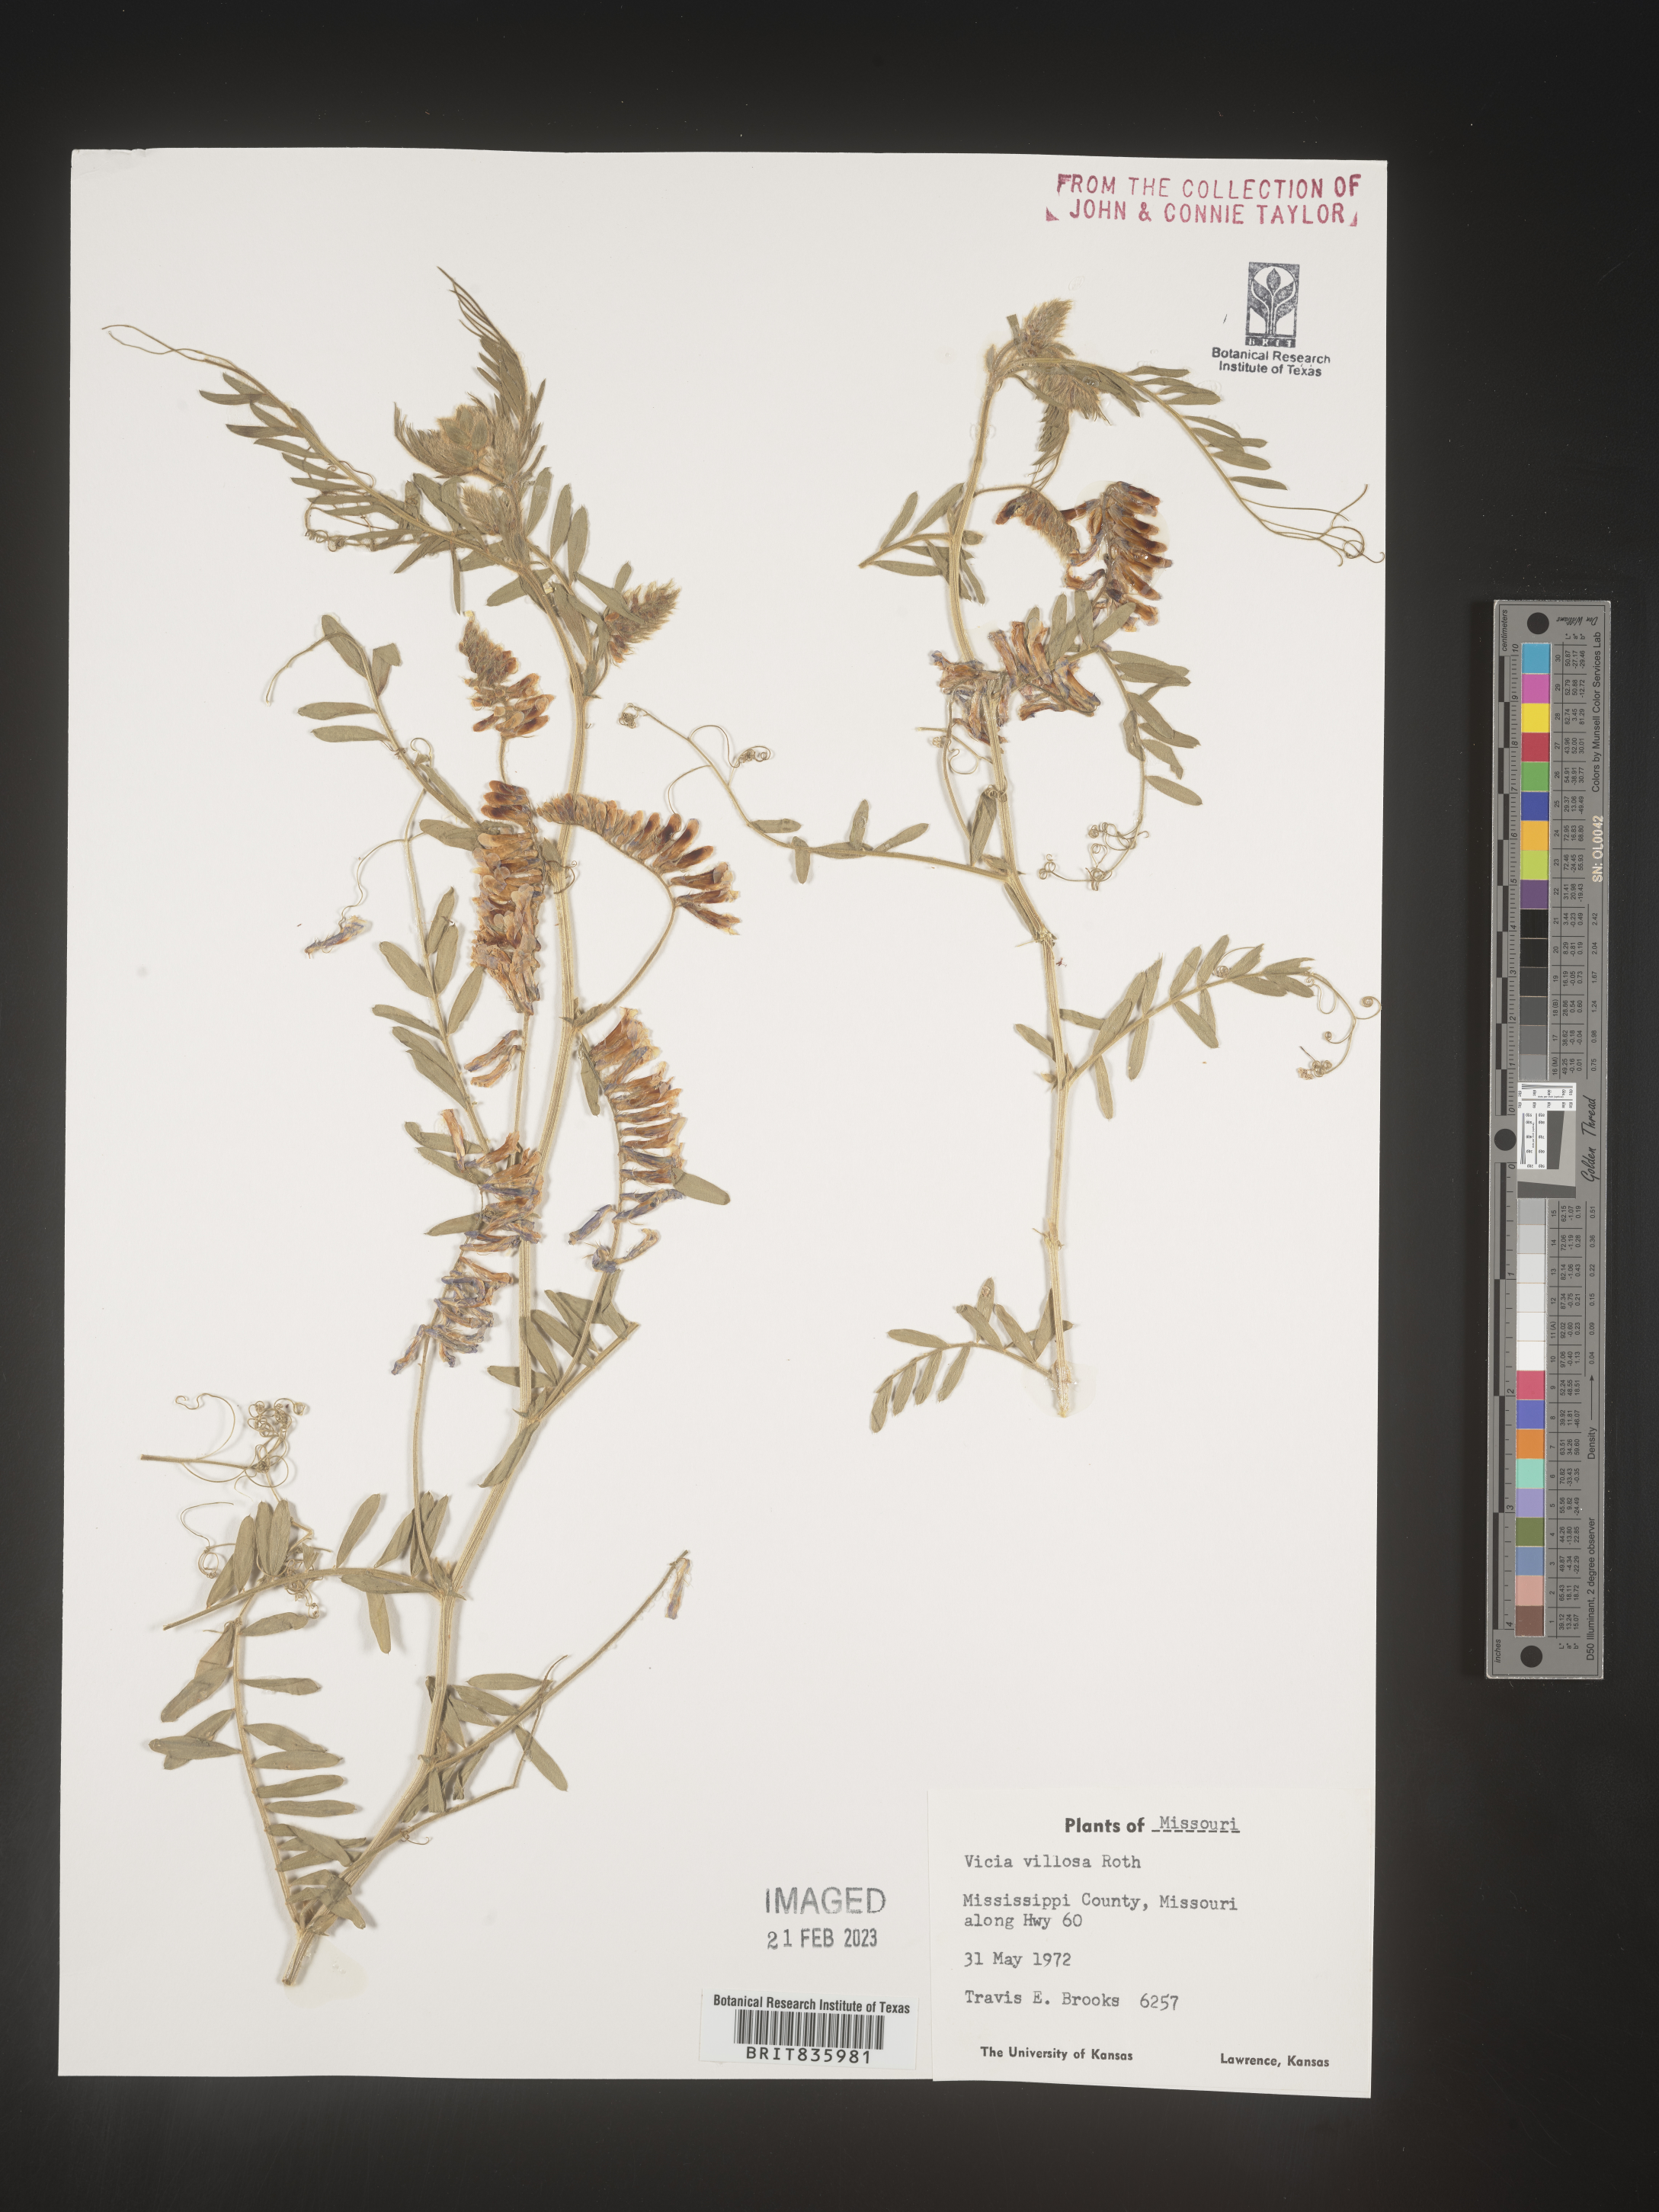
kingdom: Plantae
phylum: Tracheophyta
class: Magnoliopsida
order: Fabales
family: Fabaceae
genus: Vicia
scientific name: Vicia villosa
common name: Fodder vetch
